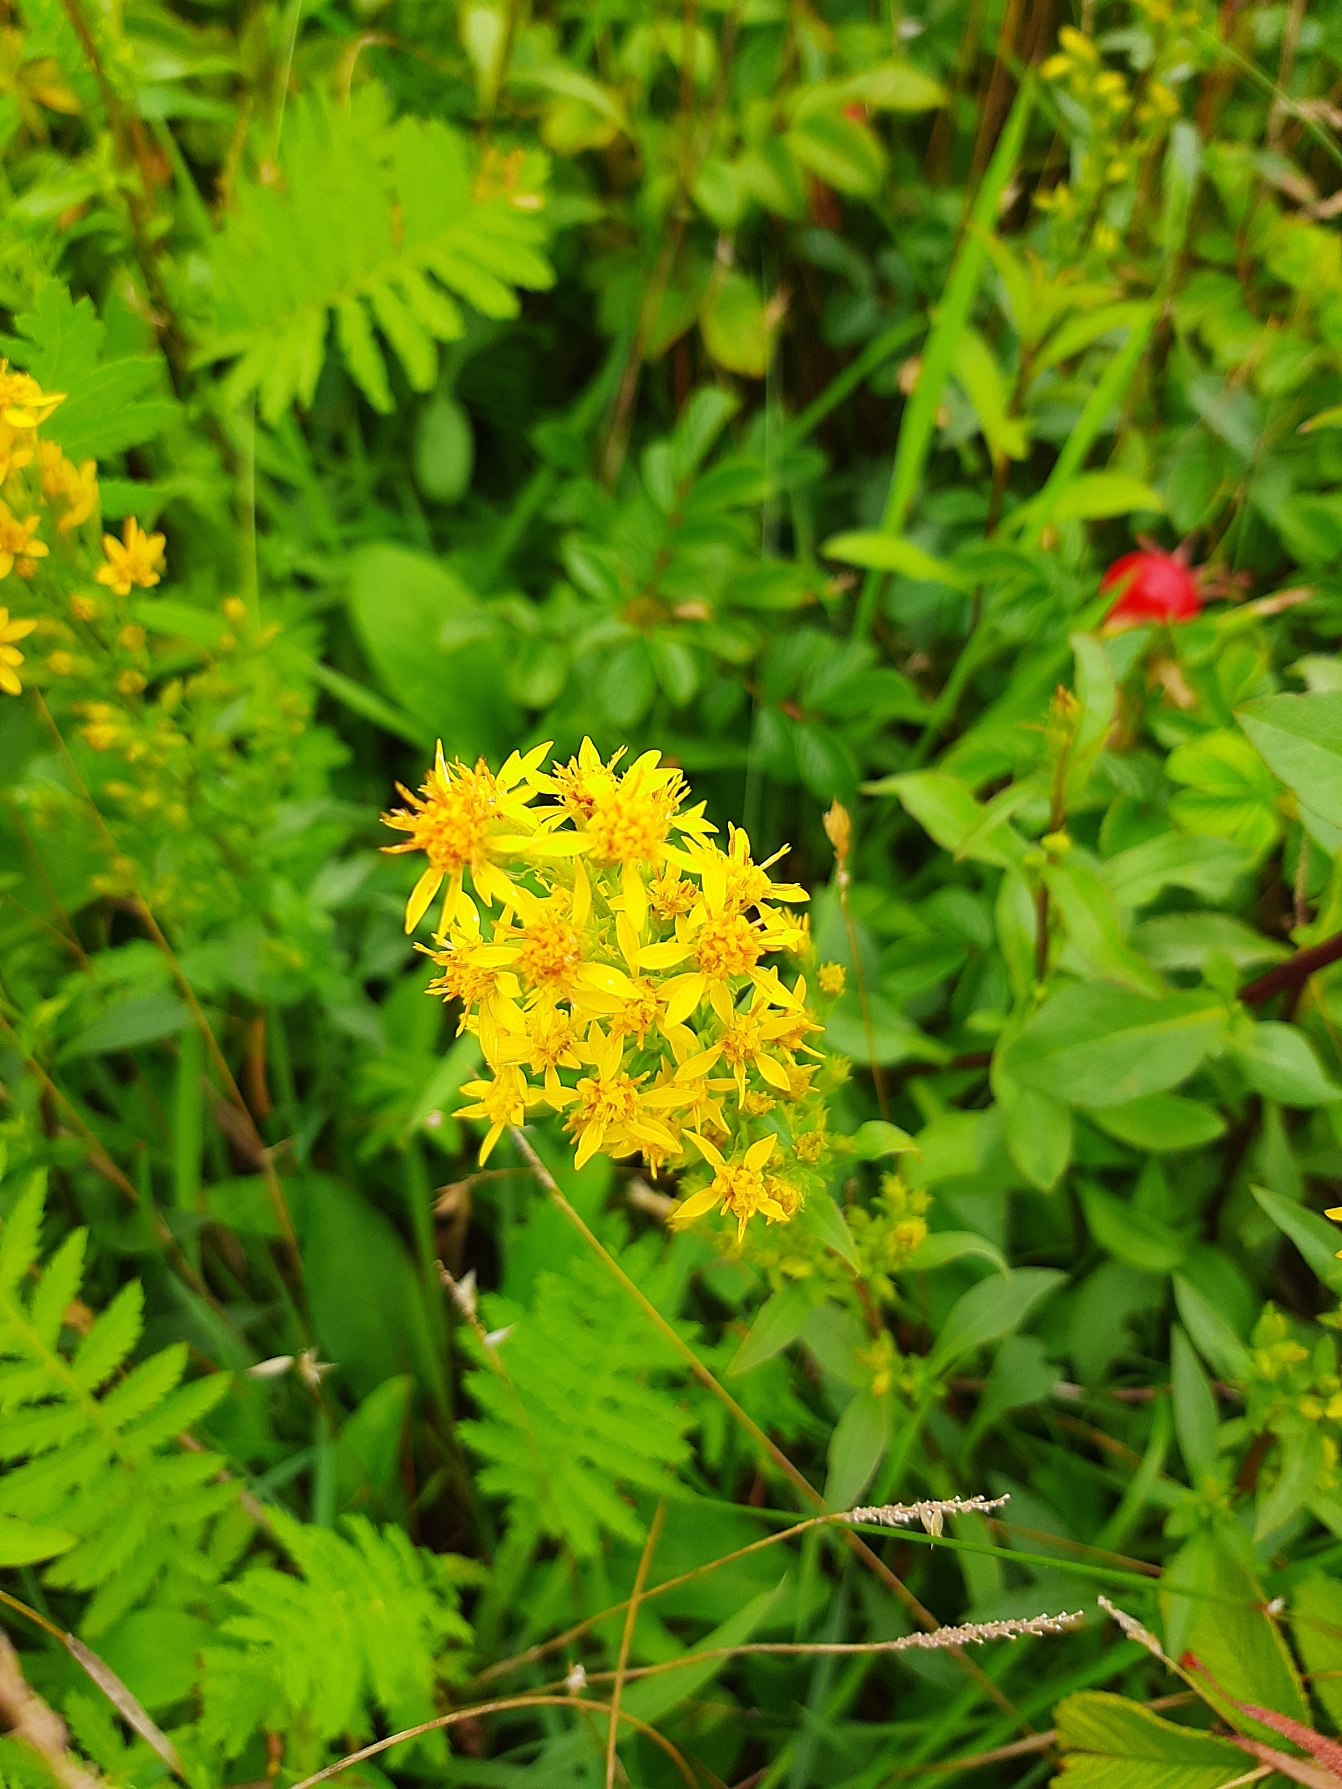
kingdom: Plantae
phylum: Tracheophyta
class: Magnoliopsida
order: Asterales
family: Asteraceae
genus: Solidago
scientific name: Solidago virgaurea
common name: Almindelig gyldenris
